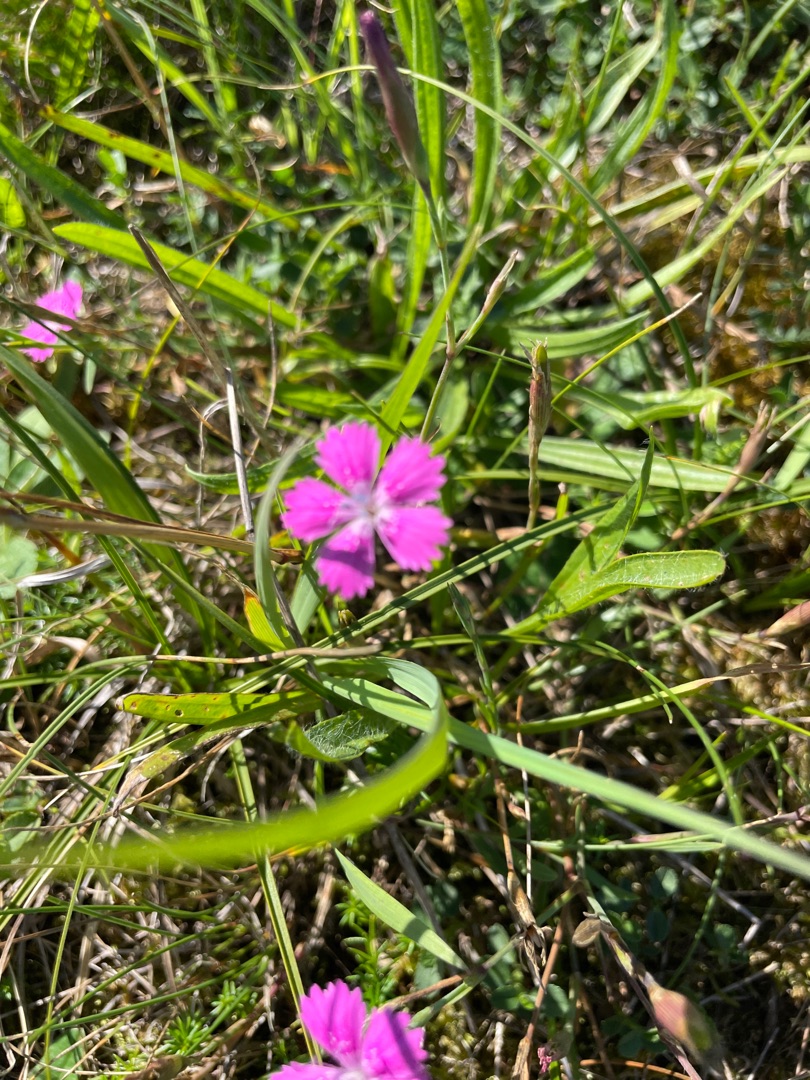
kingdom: Plantae
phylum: Tracheophyta
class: Magnoliopsida
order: Caryophyllales
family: Caryophyllaceae
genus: Dianthus
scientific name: Dianthus deltoides
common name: Bakke-nellike
